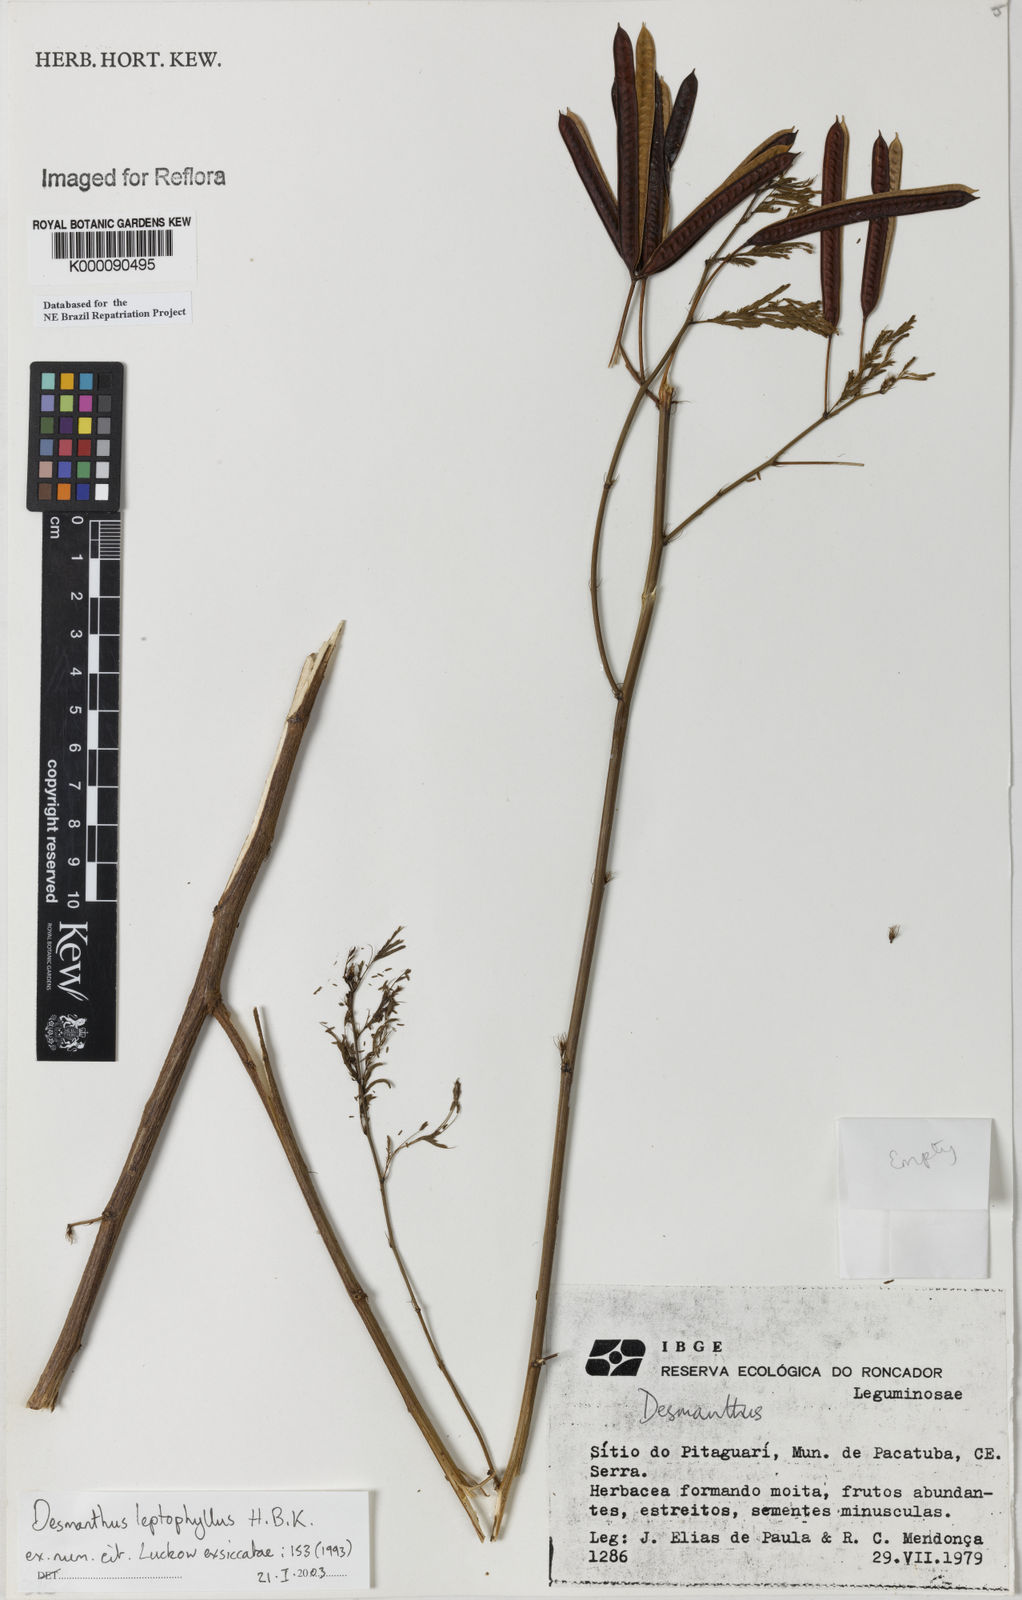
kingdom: Plantae
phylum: Tracheophyta
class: Magnoliopsida
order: Fabales
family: Fabaceae
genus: Desmanthus
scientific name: Desmanthus
